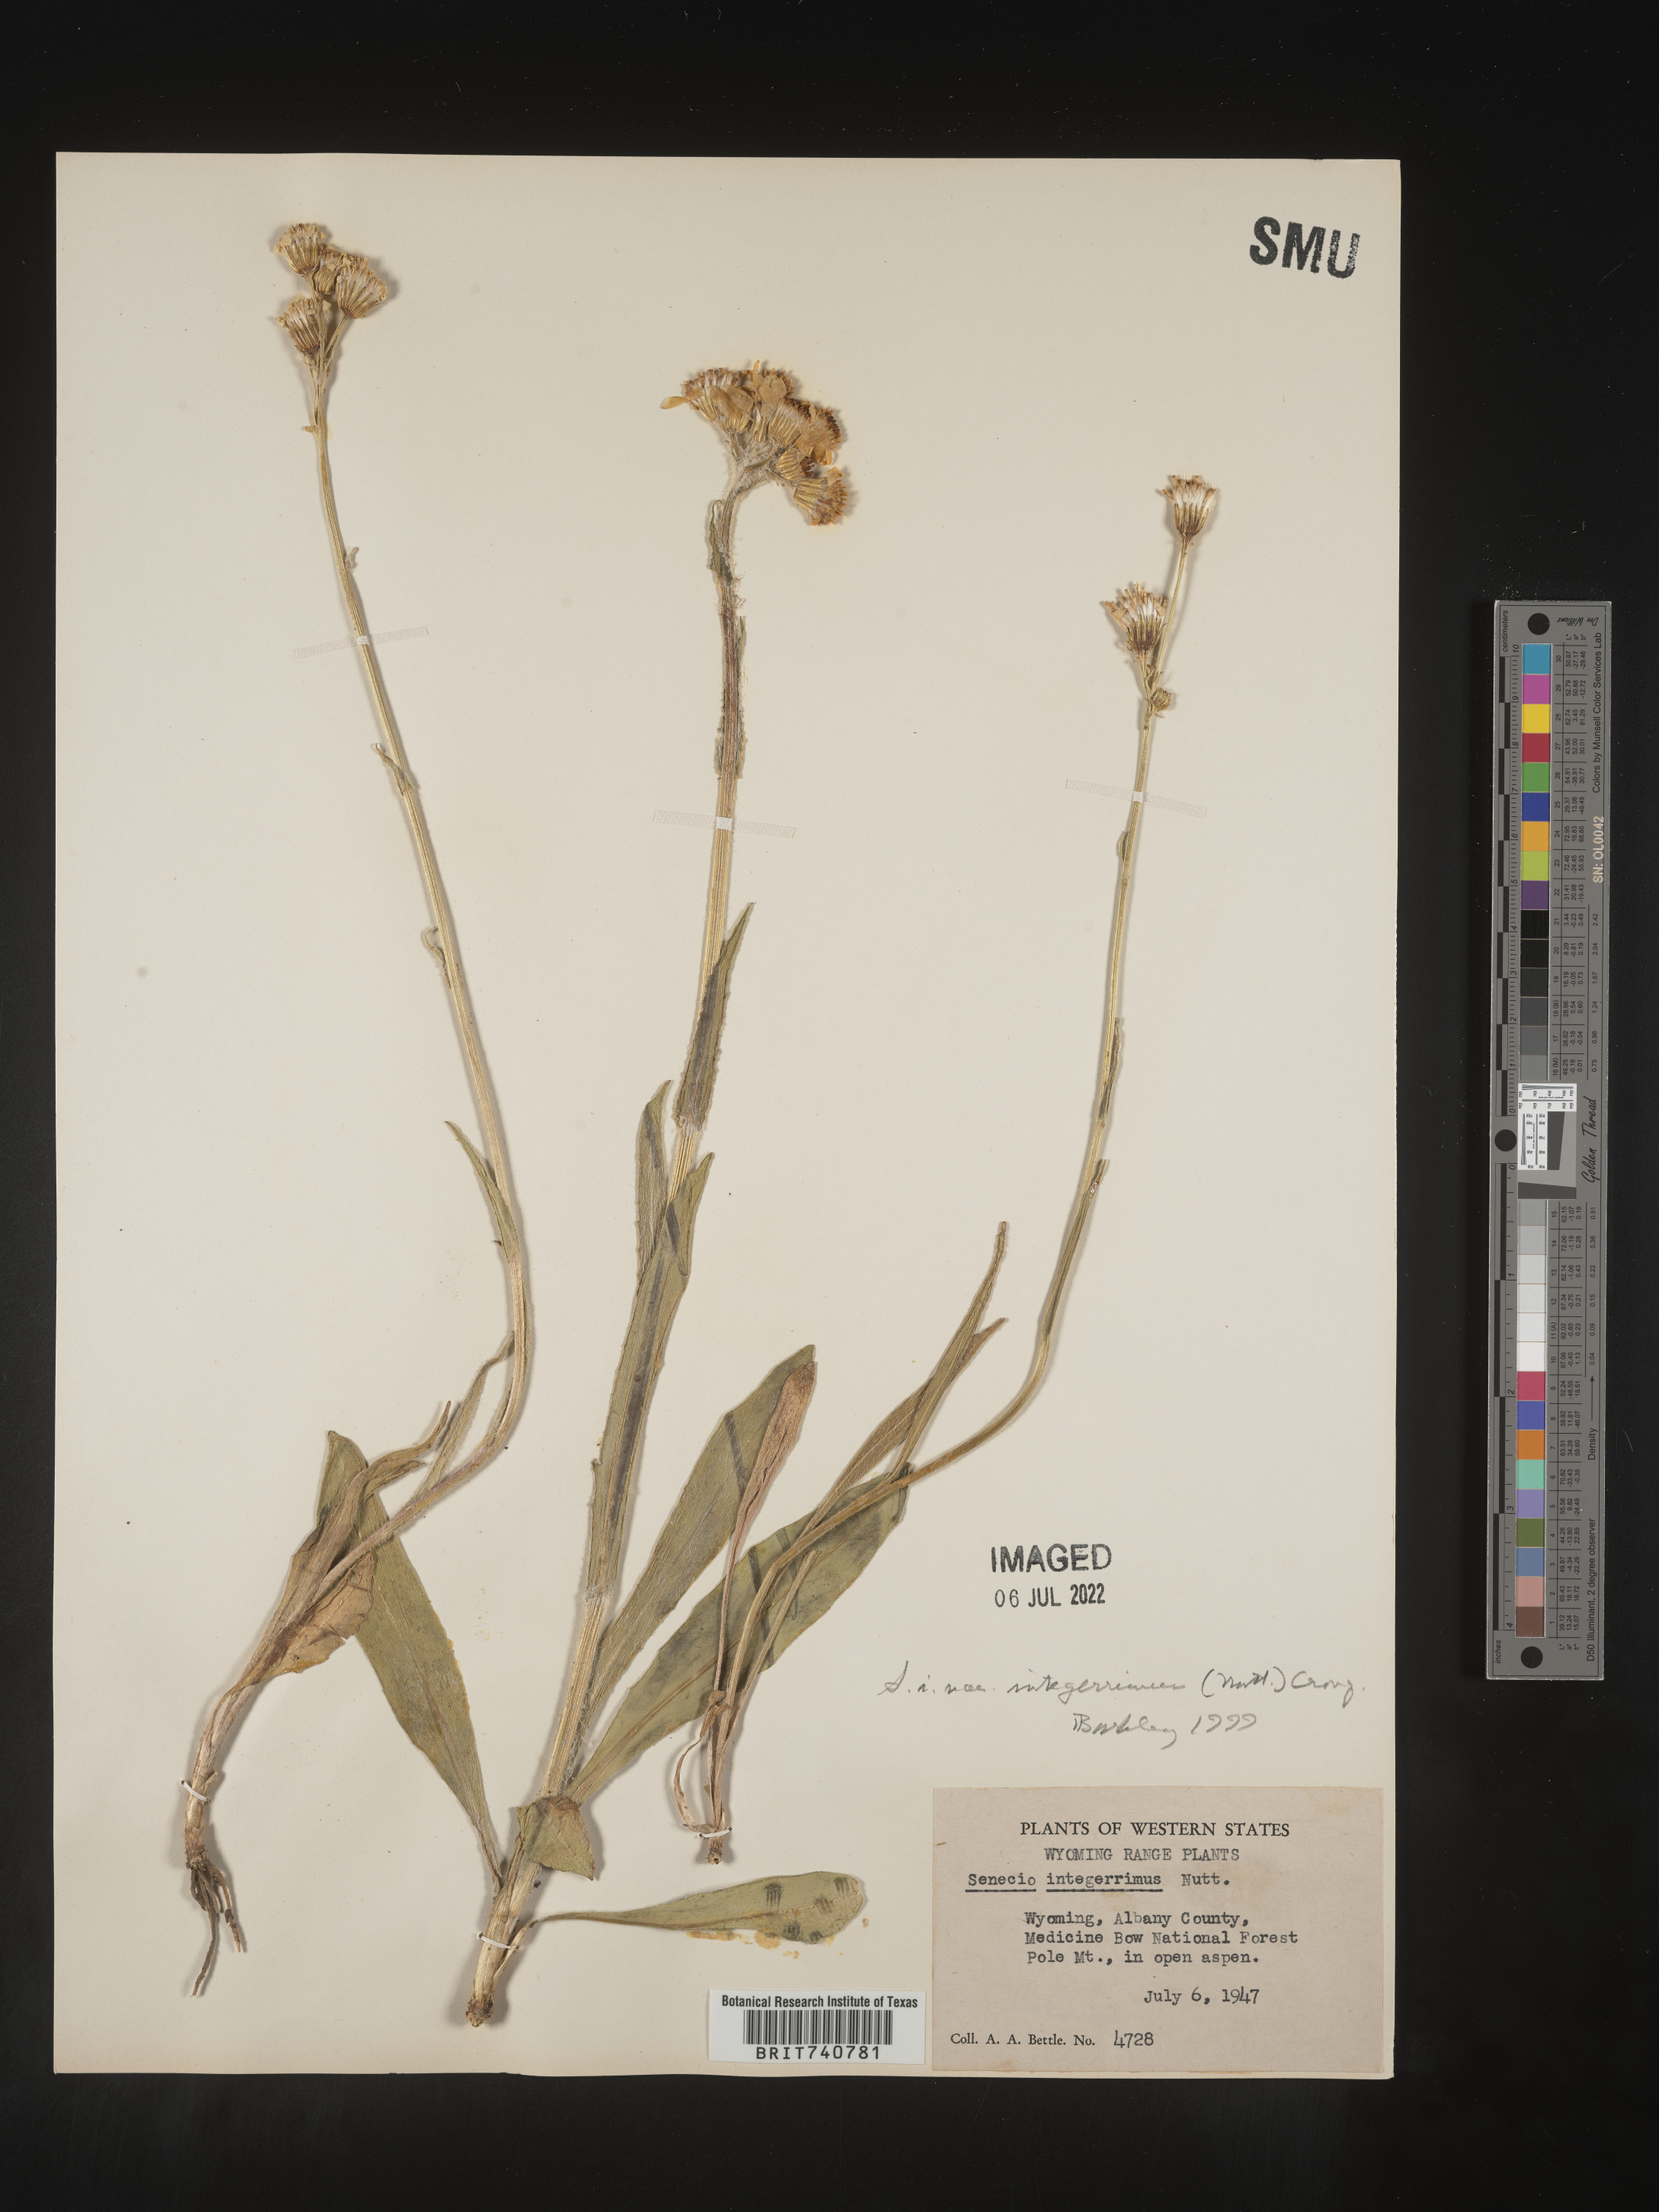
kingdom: Plantae
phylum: Tracheophyta
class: Magnoliopsida
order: Asterales
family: Asteraceae
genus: Senecio
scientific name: Senecio integerrimus
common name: Gaugeplant
